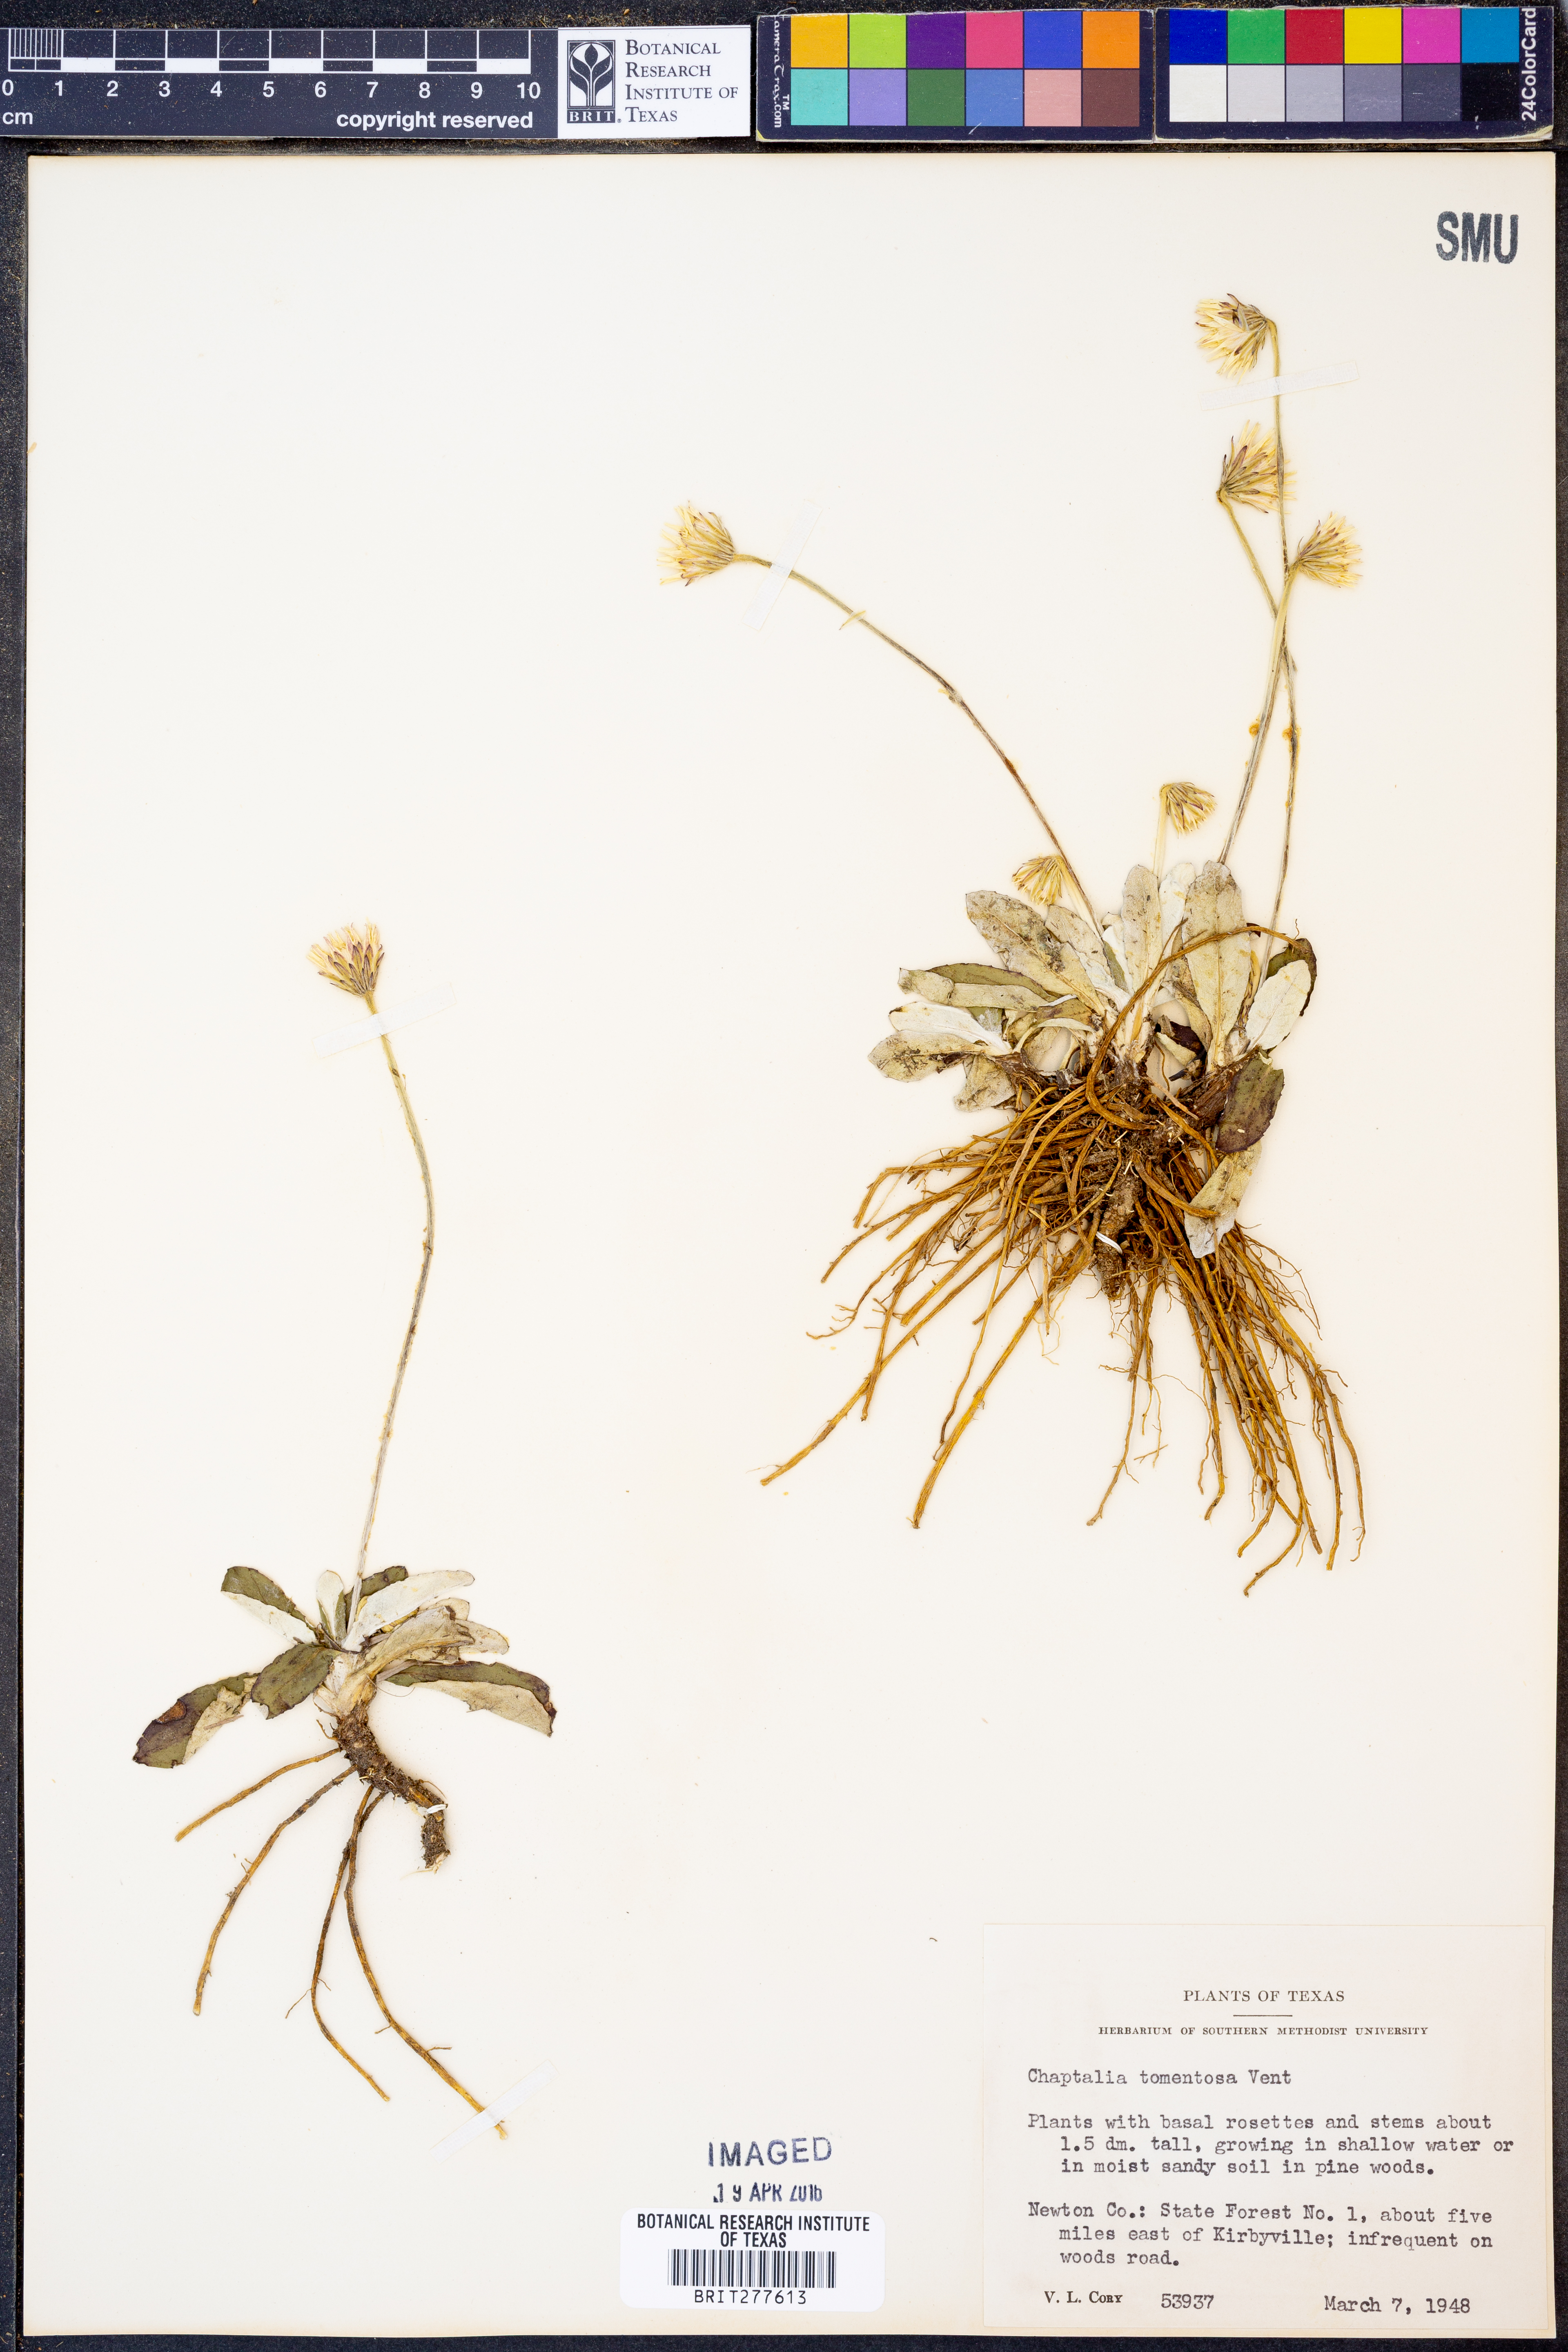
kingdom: Plantae
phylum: Tracheophyta
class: Magnoliopsida
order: Asterales
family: Asteraceae
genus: Chaptalia
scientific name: Chaptalia tomentosa
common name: Woolly sunbonnet
